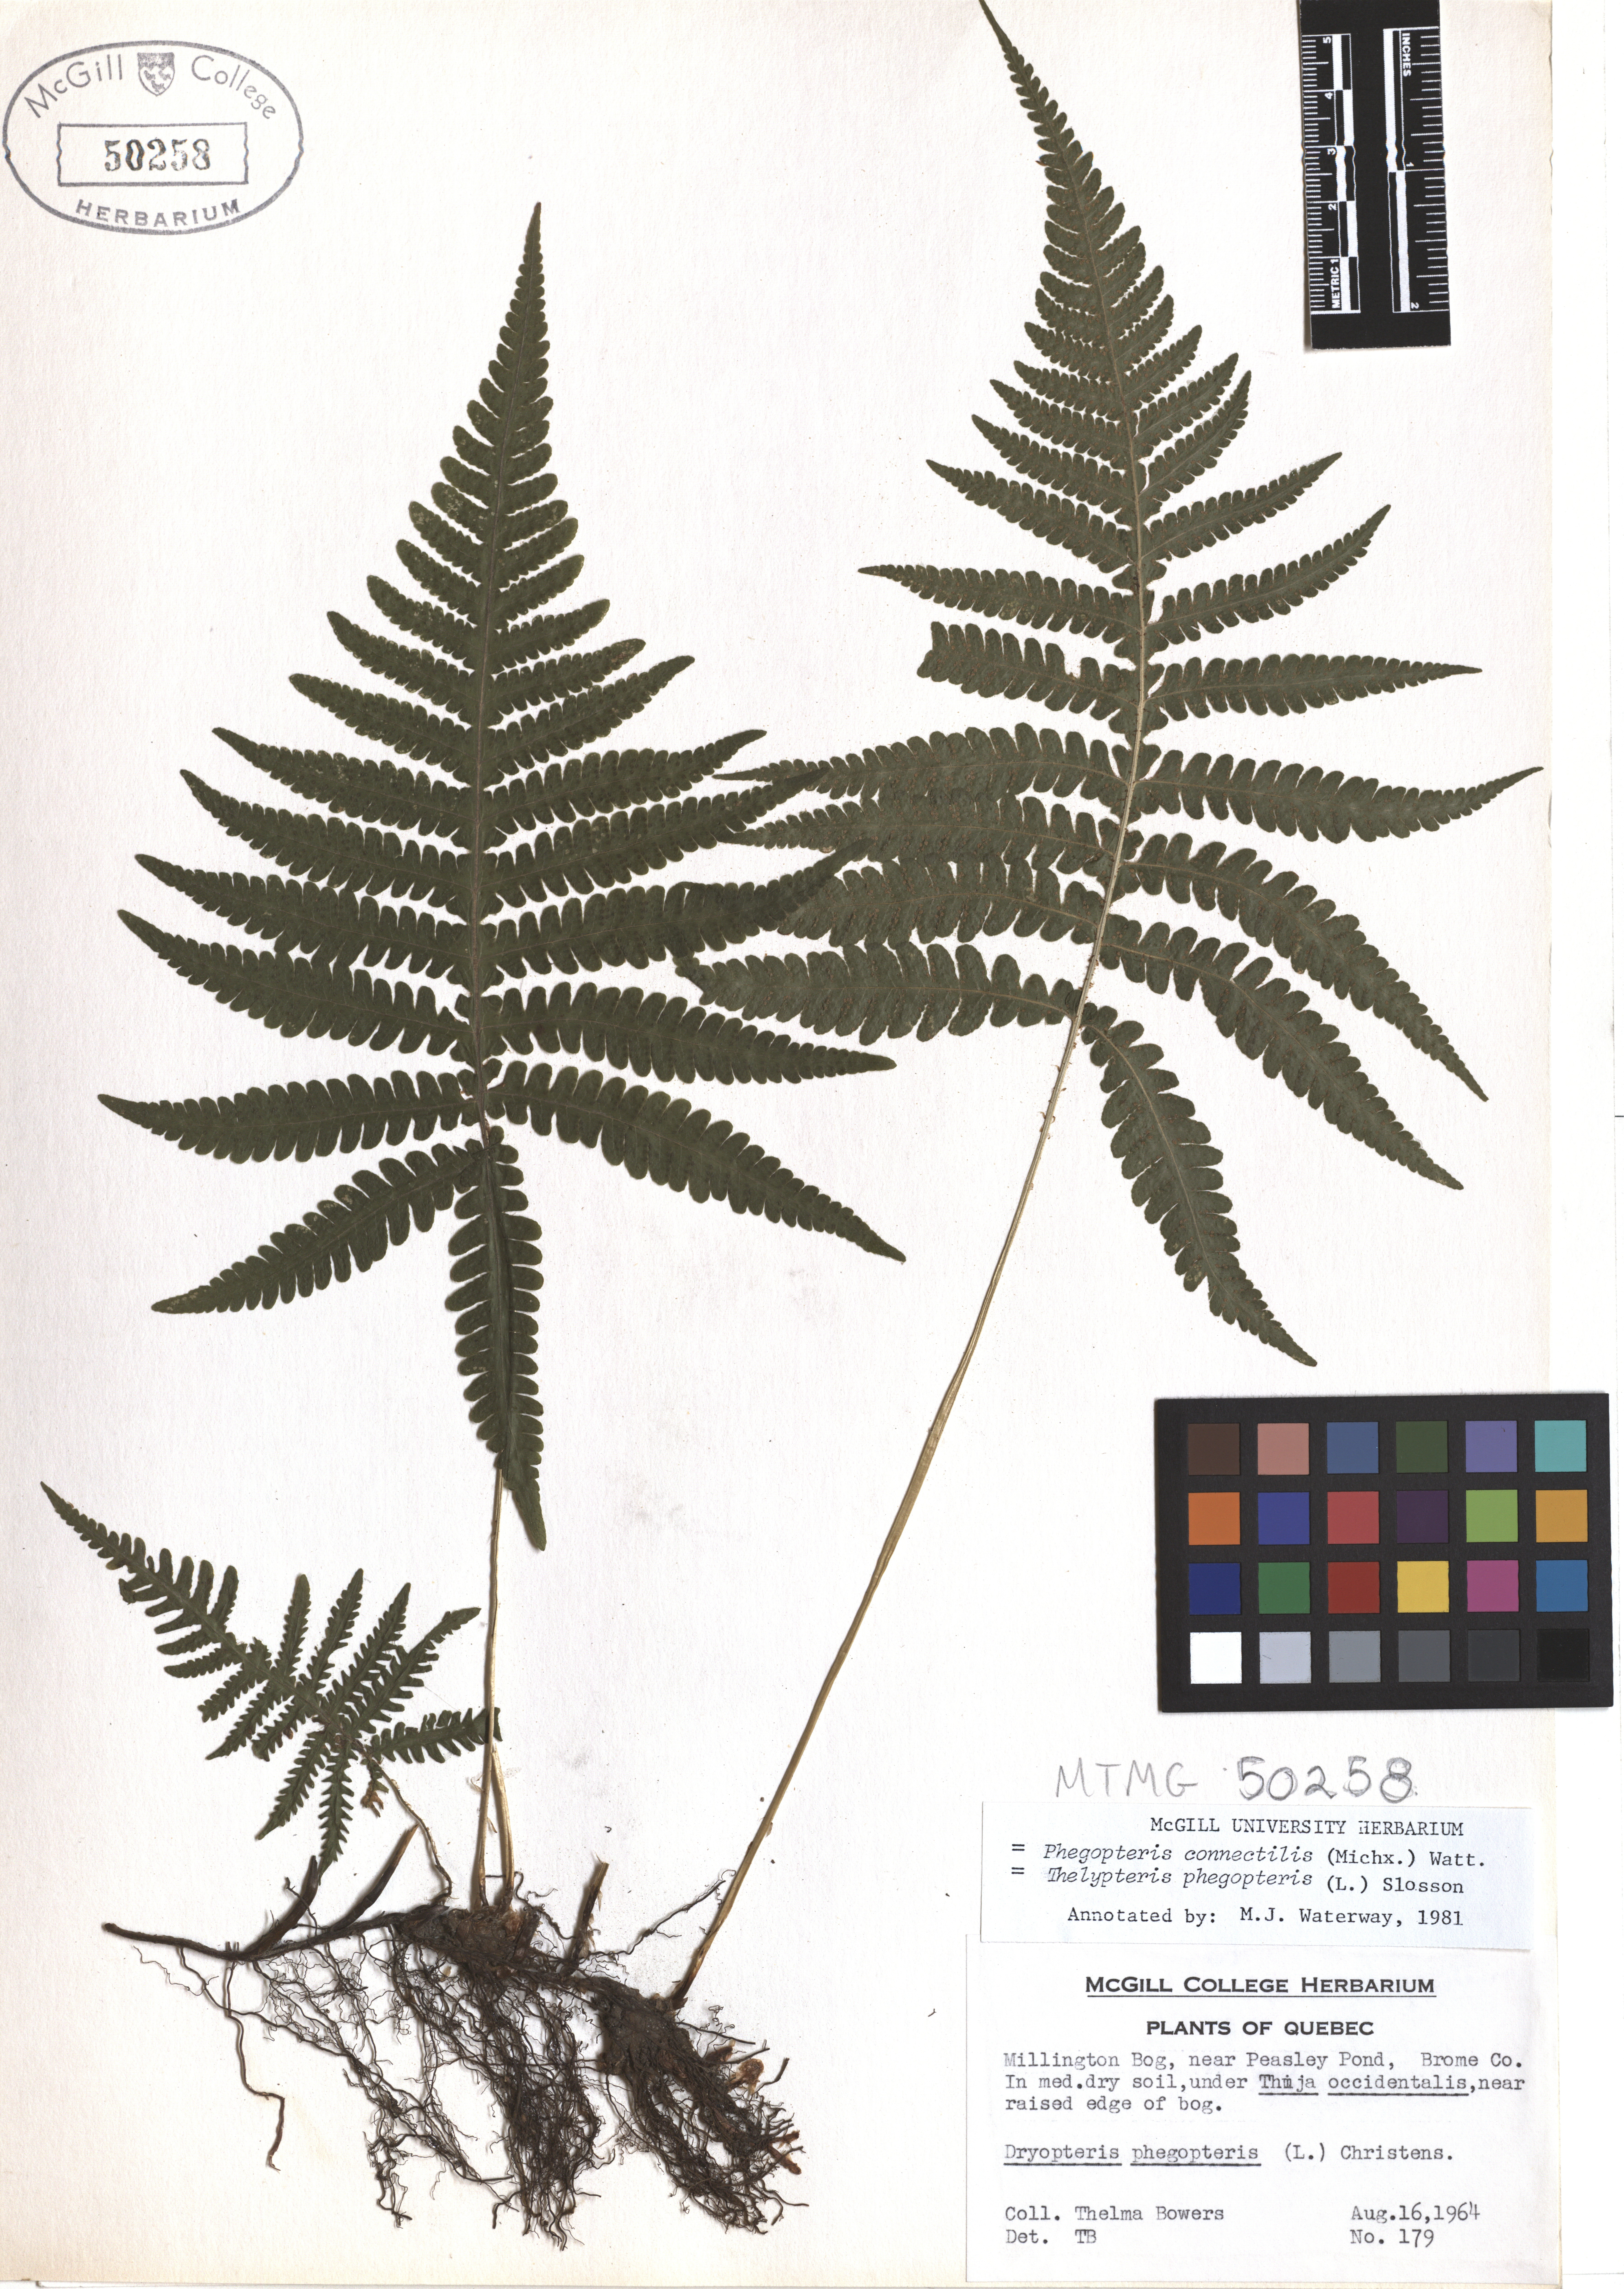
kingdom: Plantae
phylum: Tracheophyta
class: Polypodiopsida
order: Polypodiales
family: Thelypteridaceae
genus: Phegopteris
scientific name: Phegopteris connectilis
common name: Beech fern
